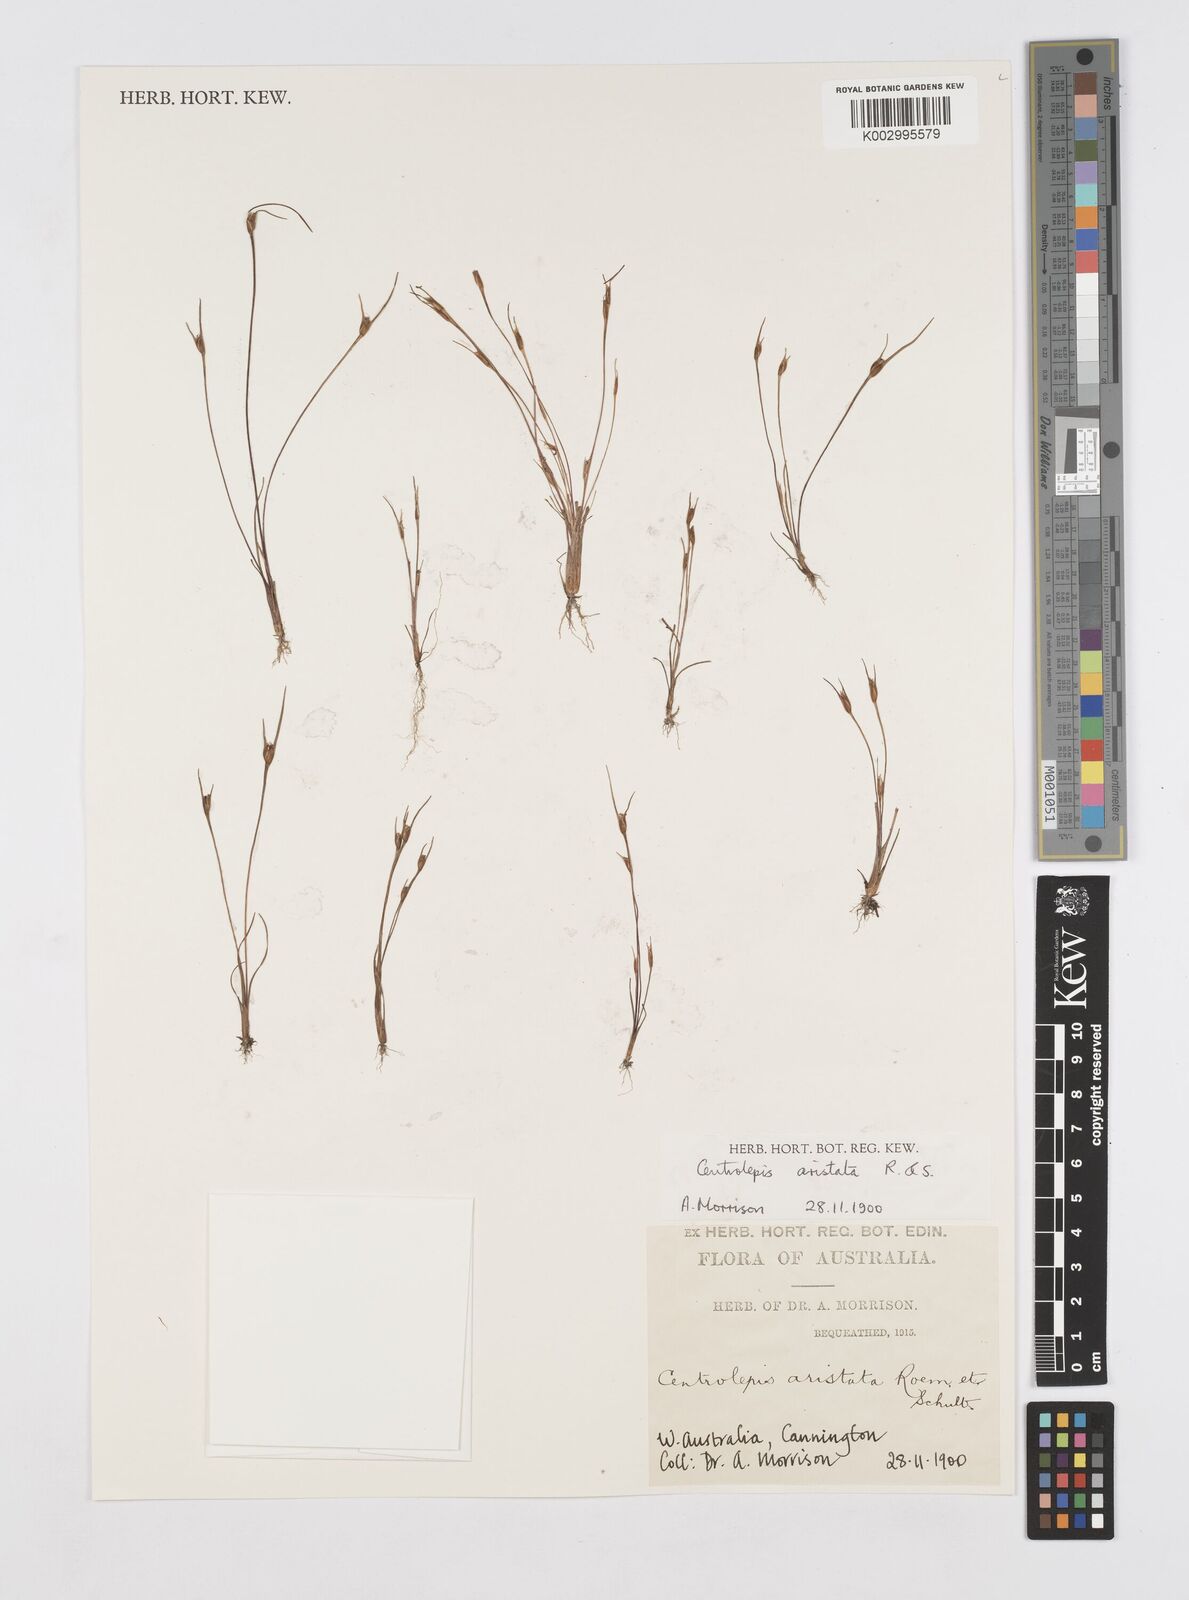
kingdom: Plantae
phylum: Tracheophyta
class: Liliopsida
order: Poales
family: Restionaceae
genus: Centrolepis
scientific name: Centrolepis aristata
